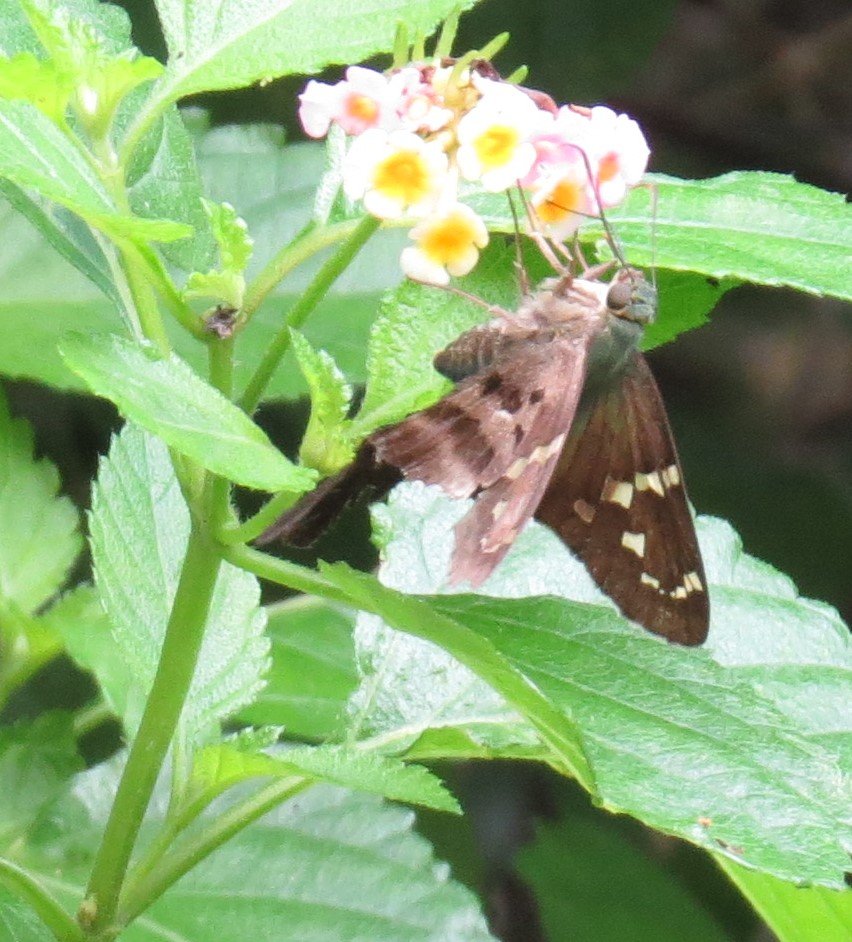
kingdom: Animalia
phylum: Arthropoda
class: Insecta
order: Lepidoptera
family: Hesperiidae
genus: Urbanus
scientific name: Urbanus proteus
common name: Long-tailed Skipper
